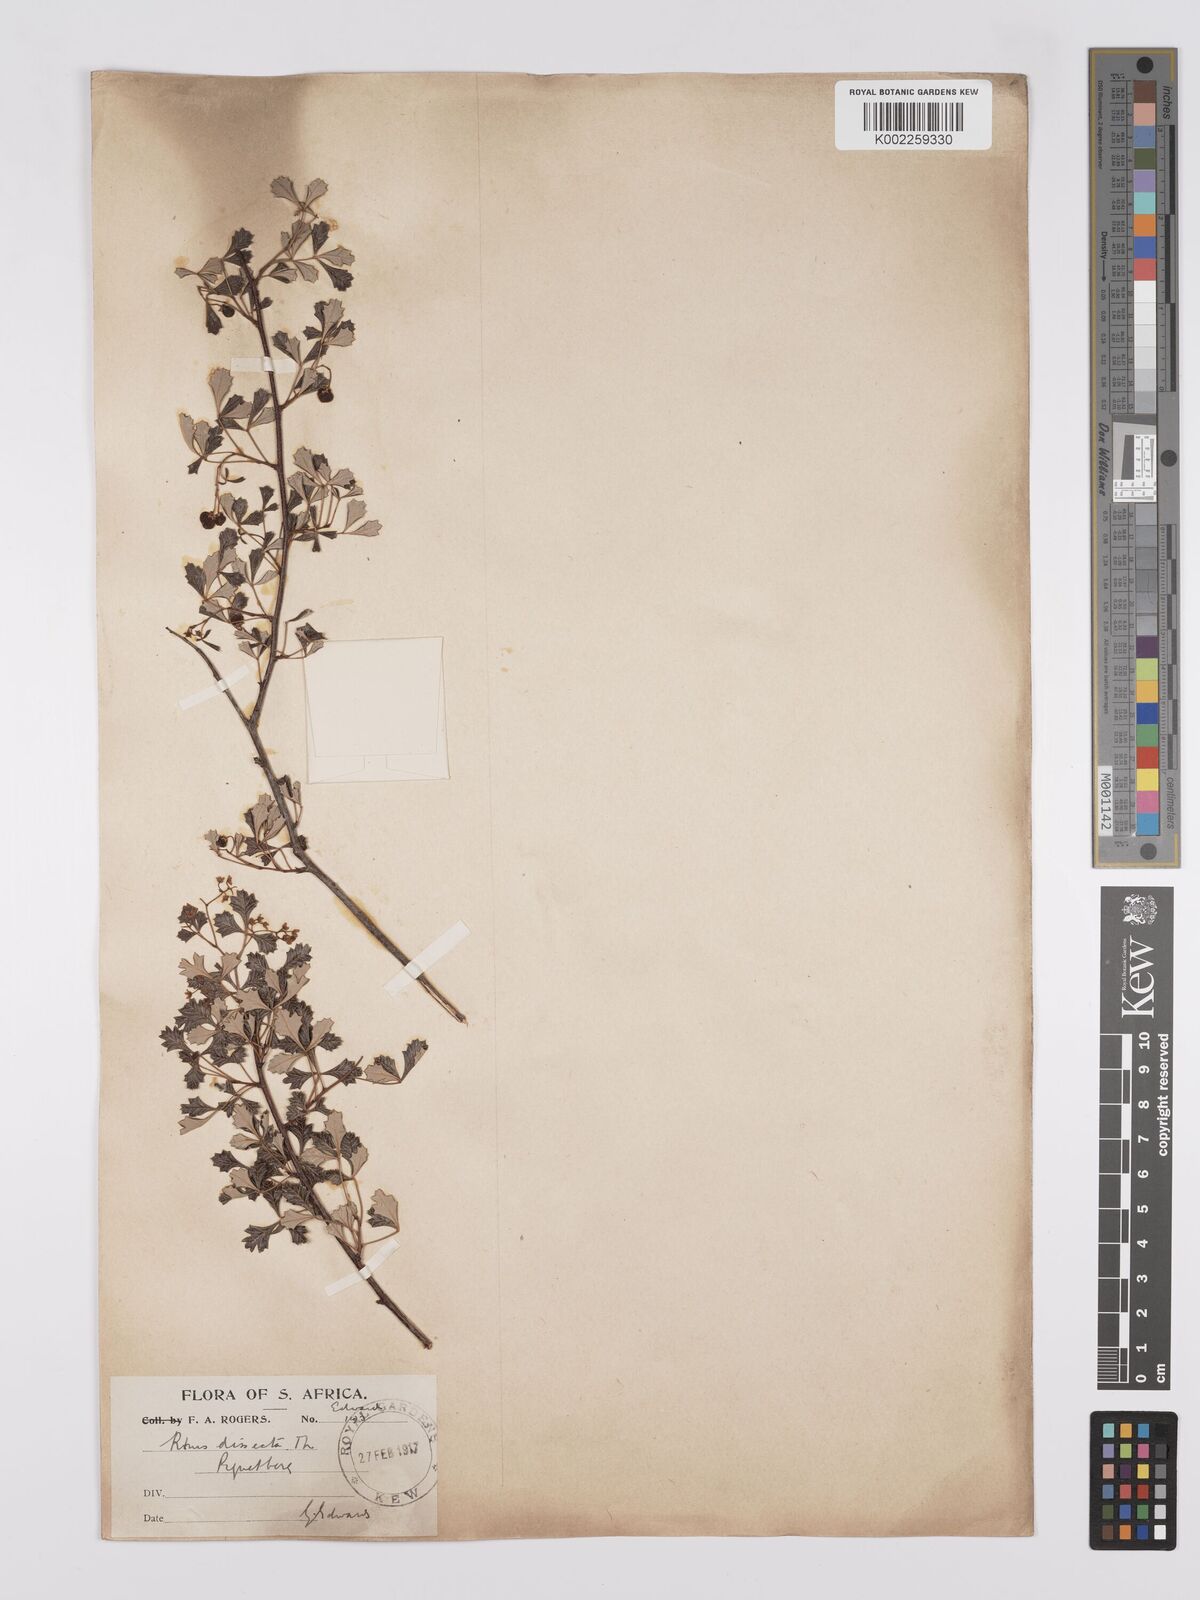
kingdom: Plantae
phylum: Tracheophyta
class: Magnoliopsida
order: Sapindales
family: Anacardiaceae
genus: Searsia
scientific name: Searsia dissecta
